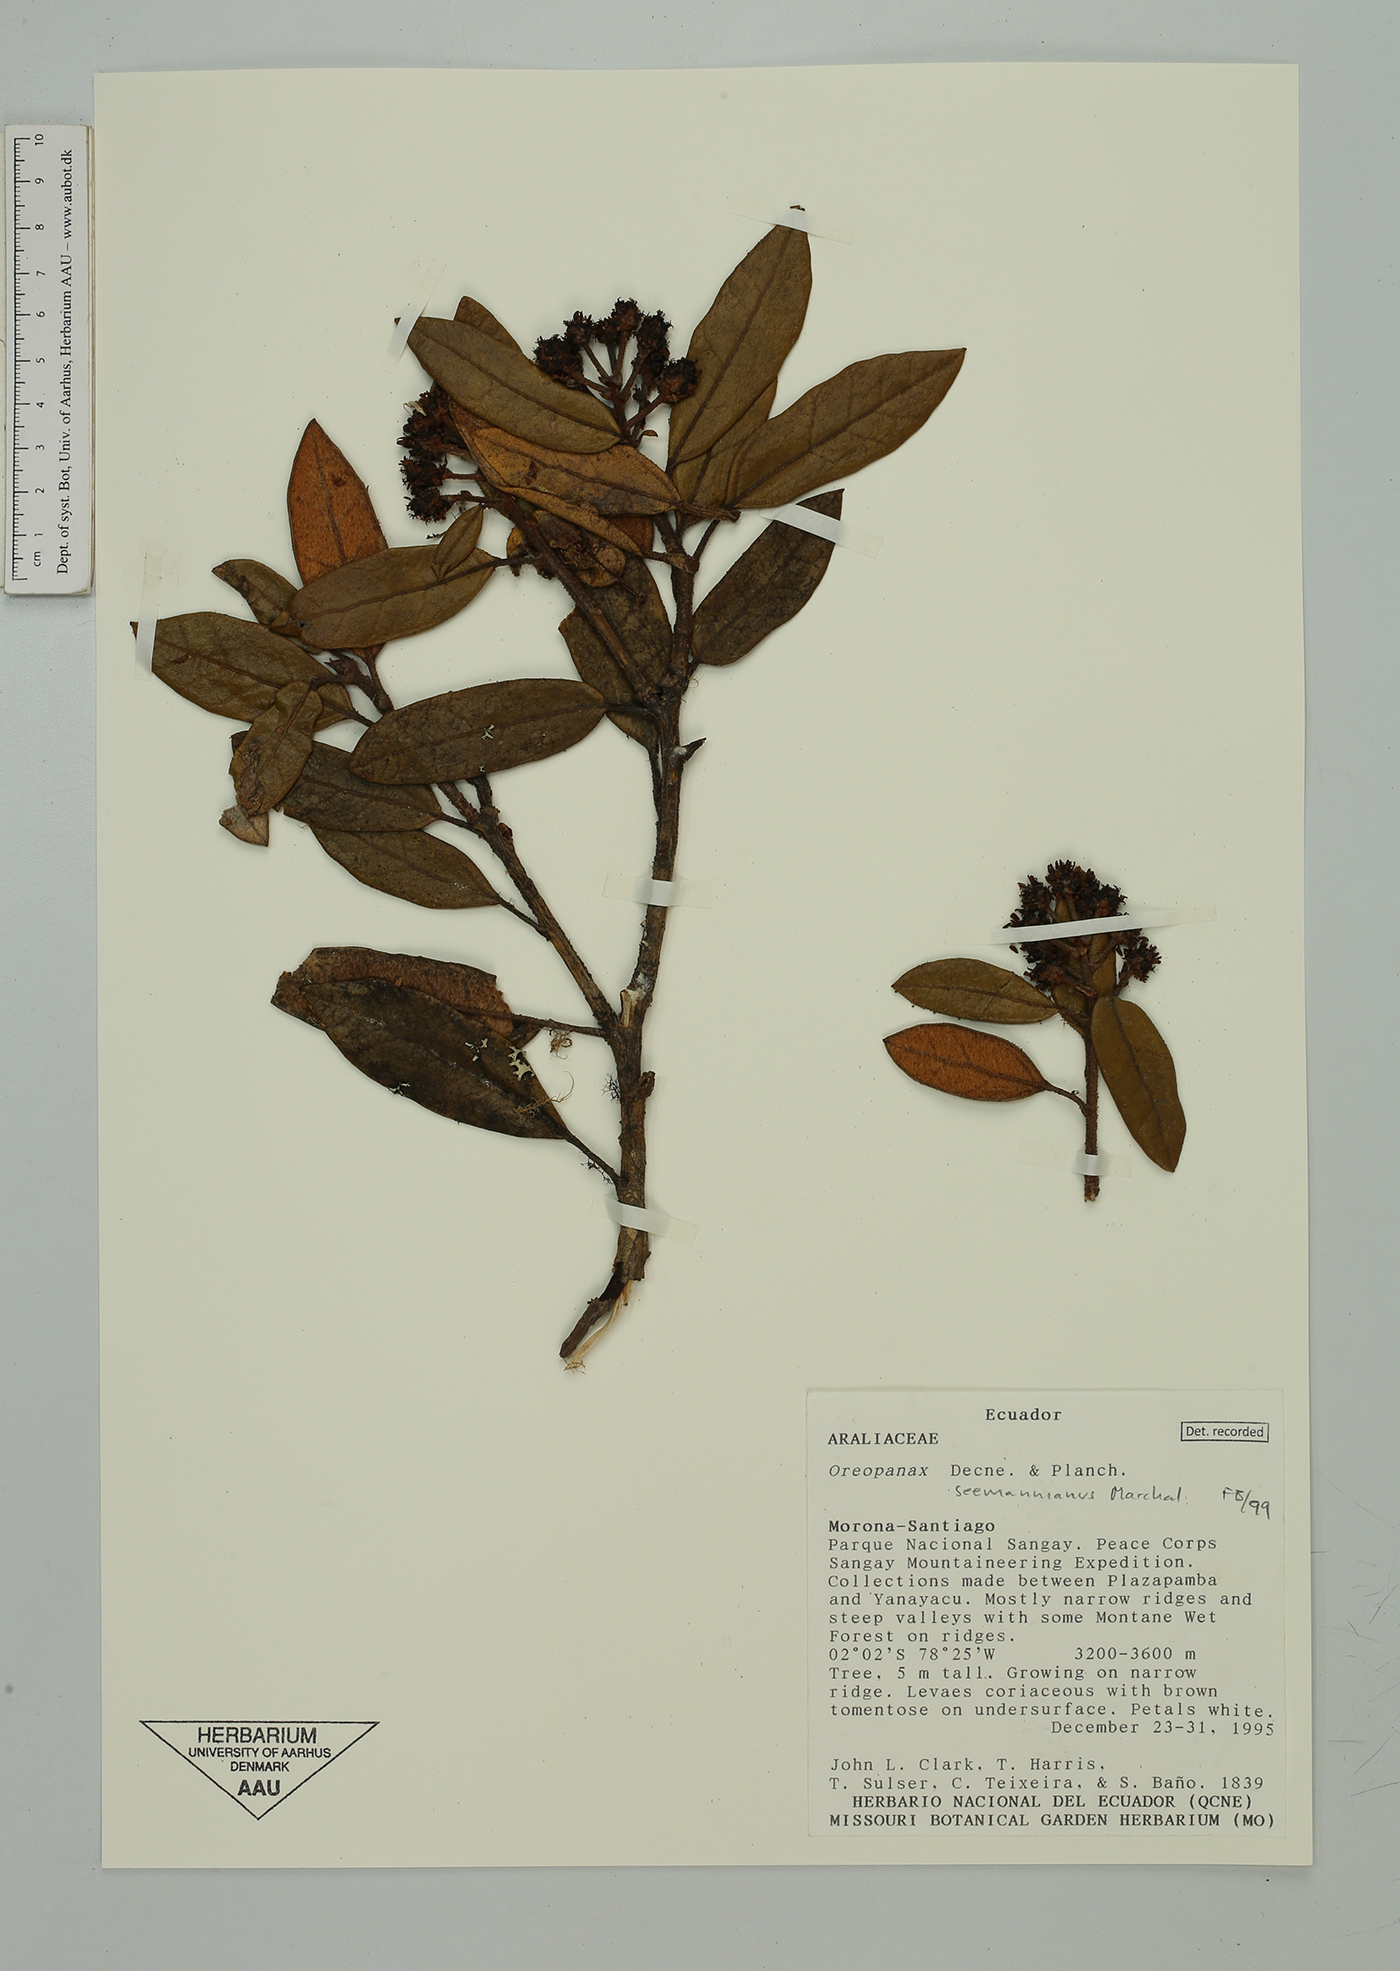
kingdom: Plantae
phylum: Tracheophyta
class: Magnoliopsida
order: Apiales
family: Araliaceae
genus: Oreopanax
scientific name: Oreopanax seemannianus
